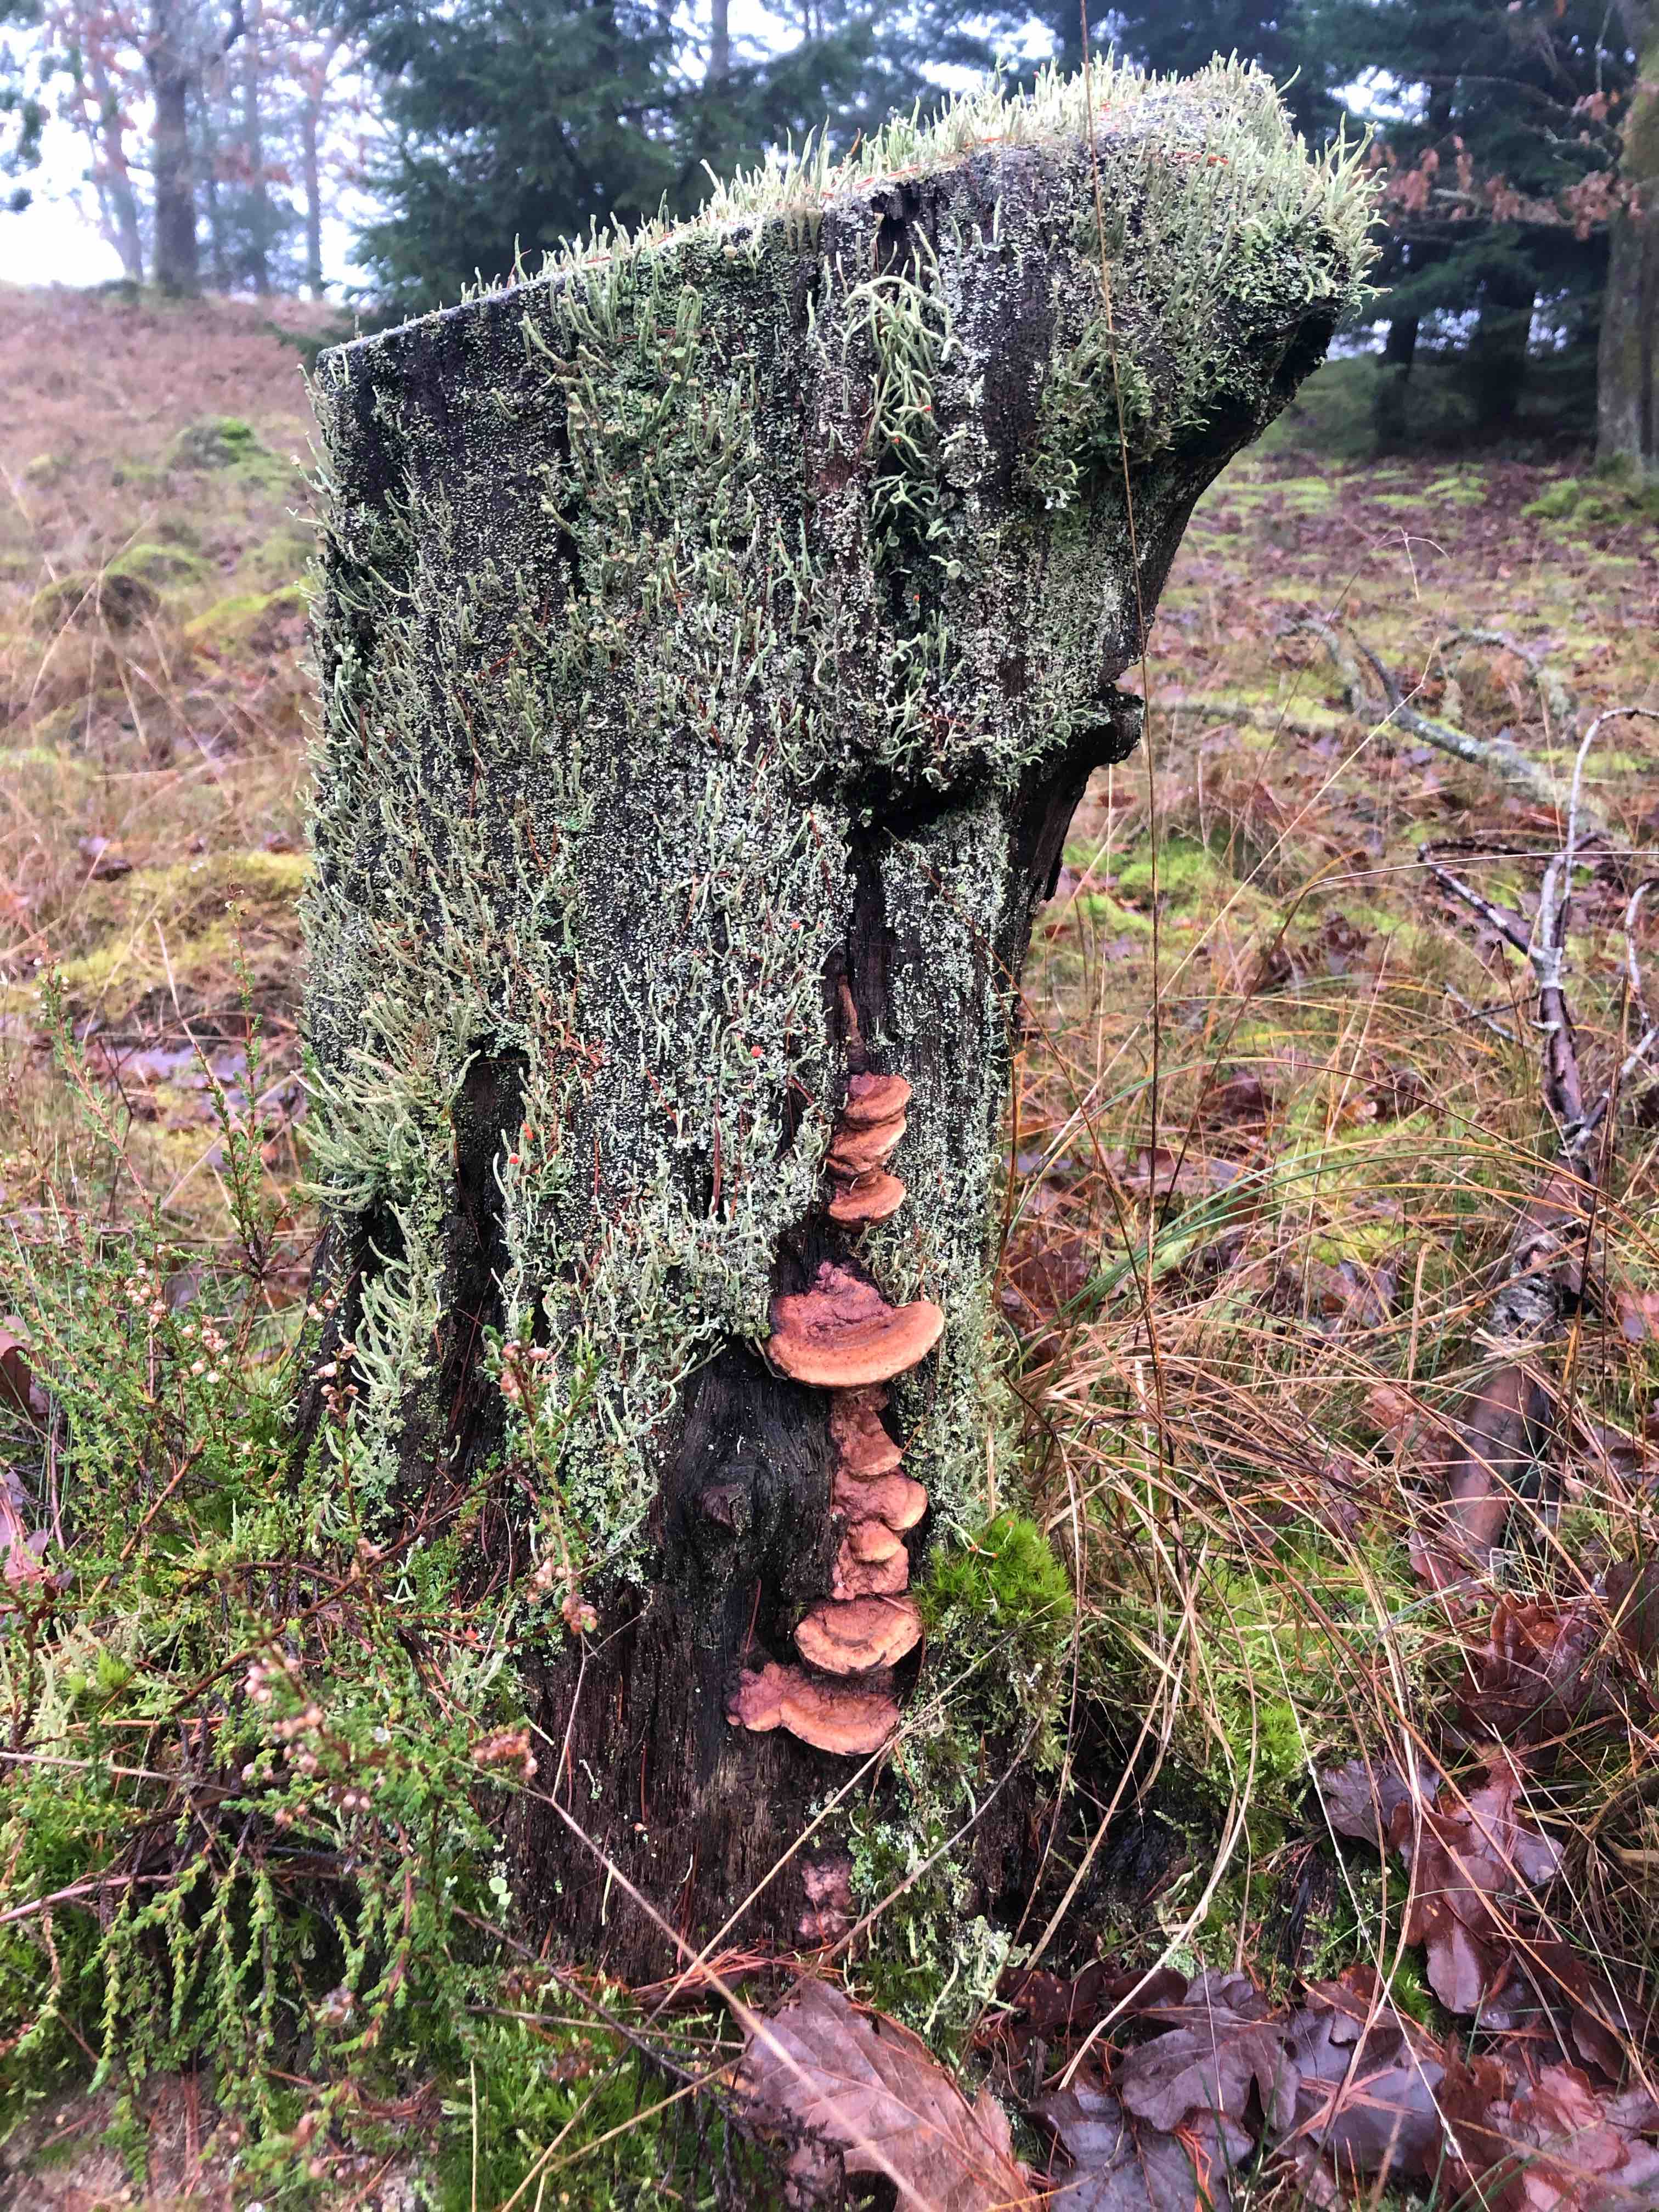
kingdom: Fungi
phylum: Basidiomycota
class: Agaricomycetes
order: Polyporales
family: Fomitopsidaceae
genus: Daedalea
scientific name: Daedalea quercina
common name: ege-labyrintsvamp
